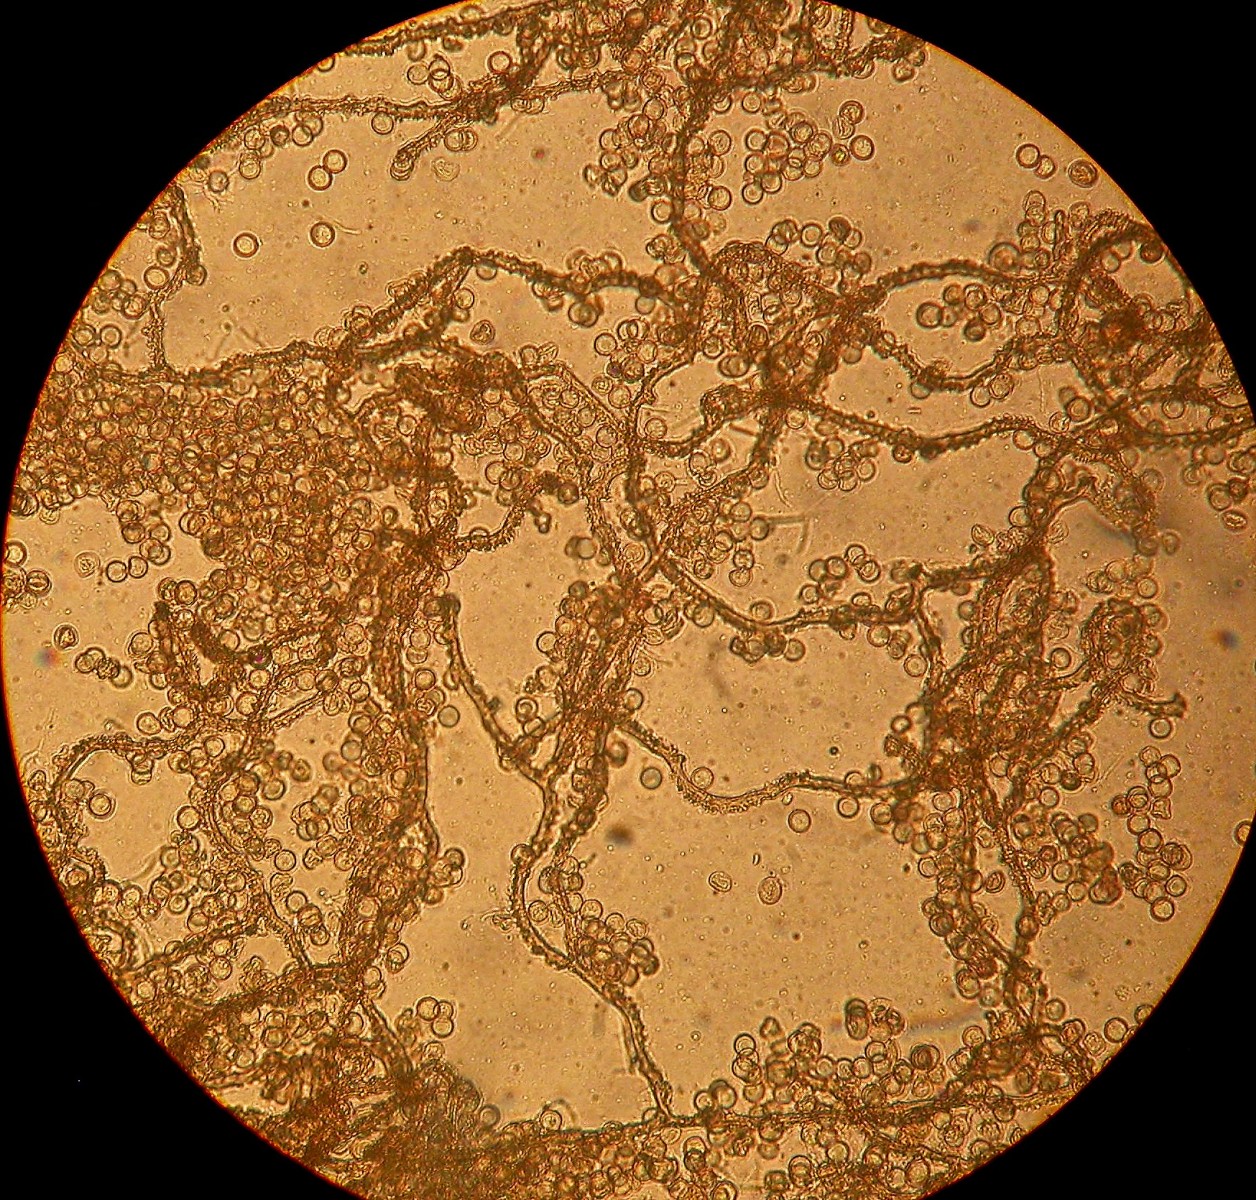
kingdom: Protozoa
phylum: Mycetozoa
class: Myxomycetes
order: Trichiales
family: Arcyriaceae
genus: Arcyria
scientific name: Arcyria pomiformis
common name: Golden apple slime mold
